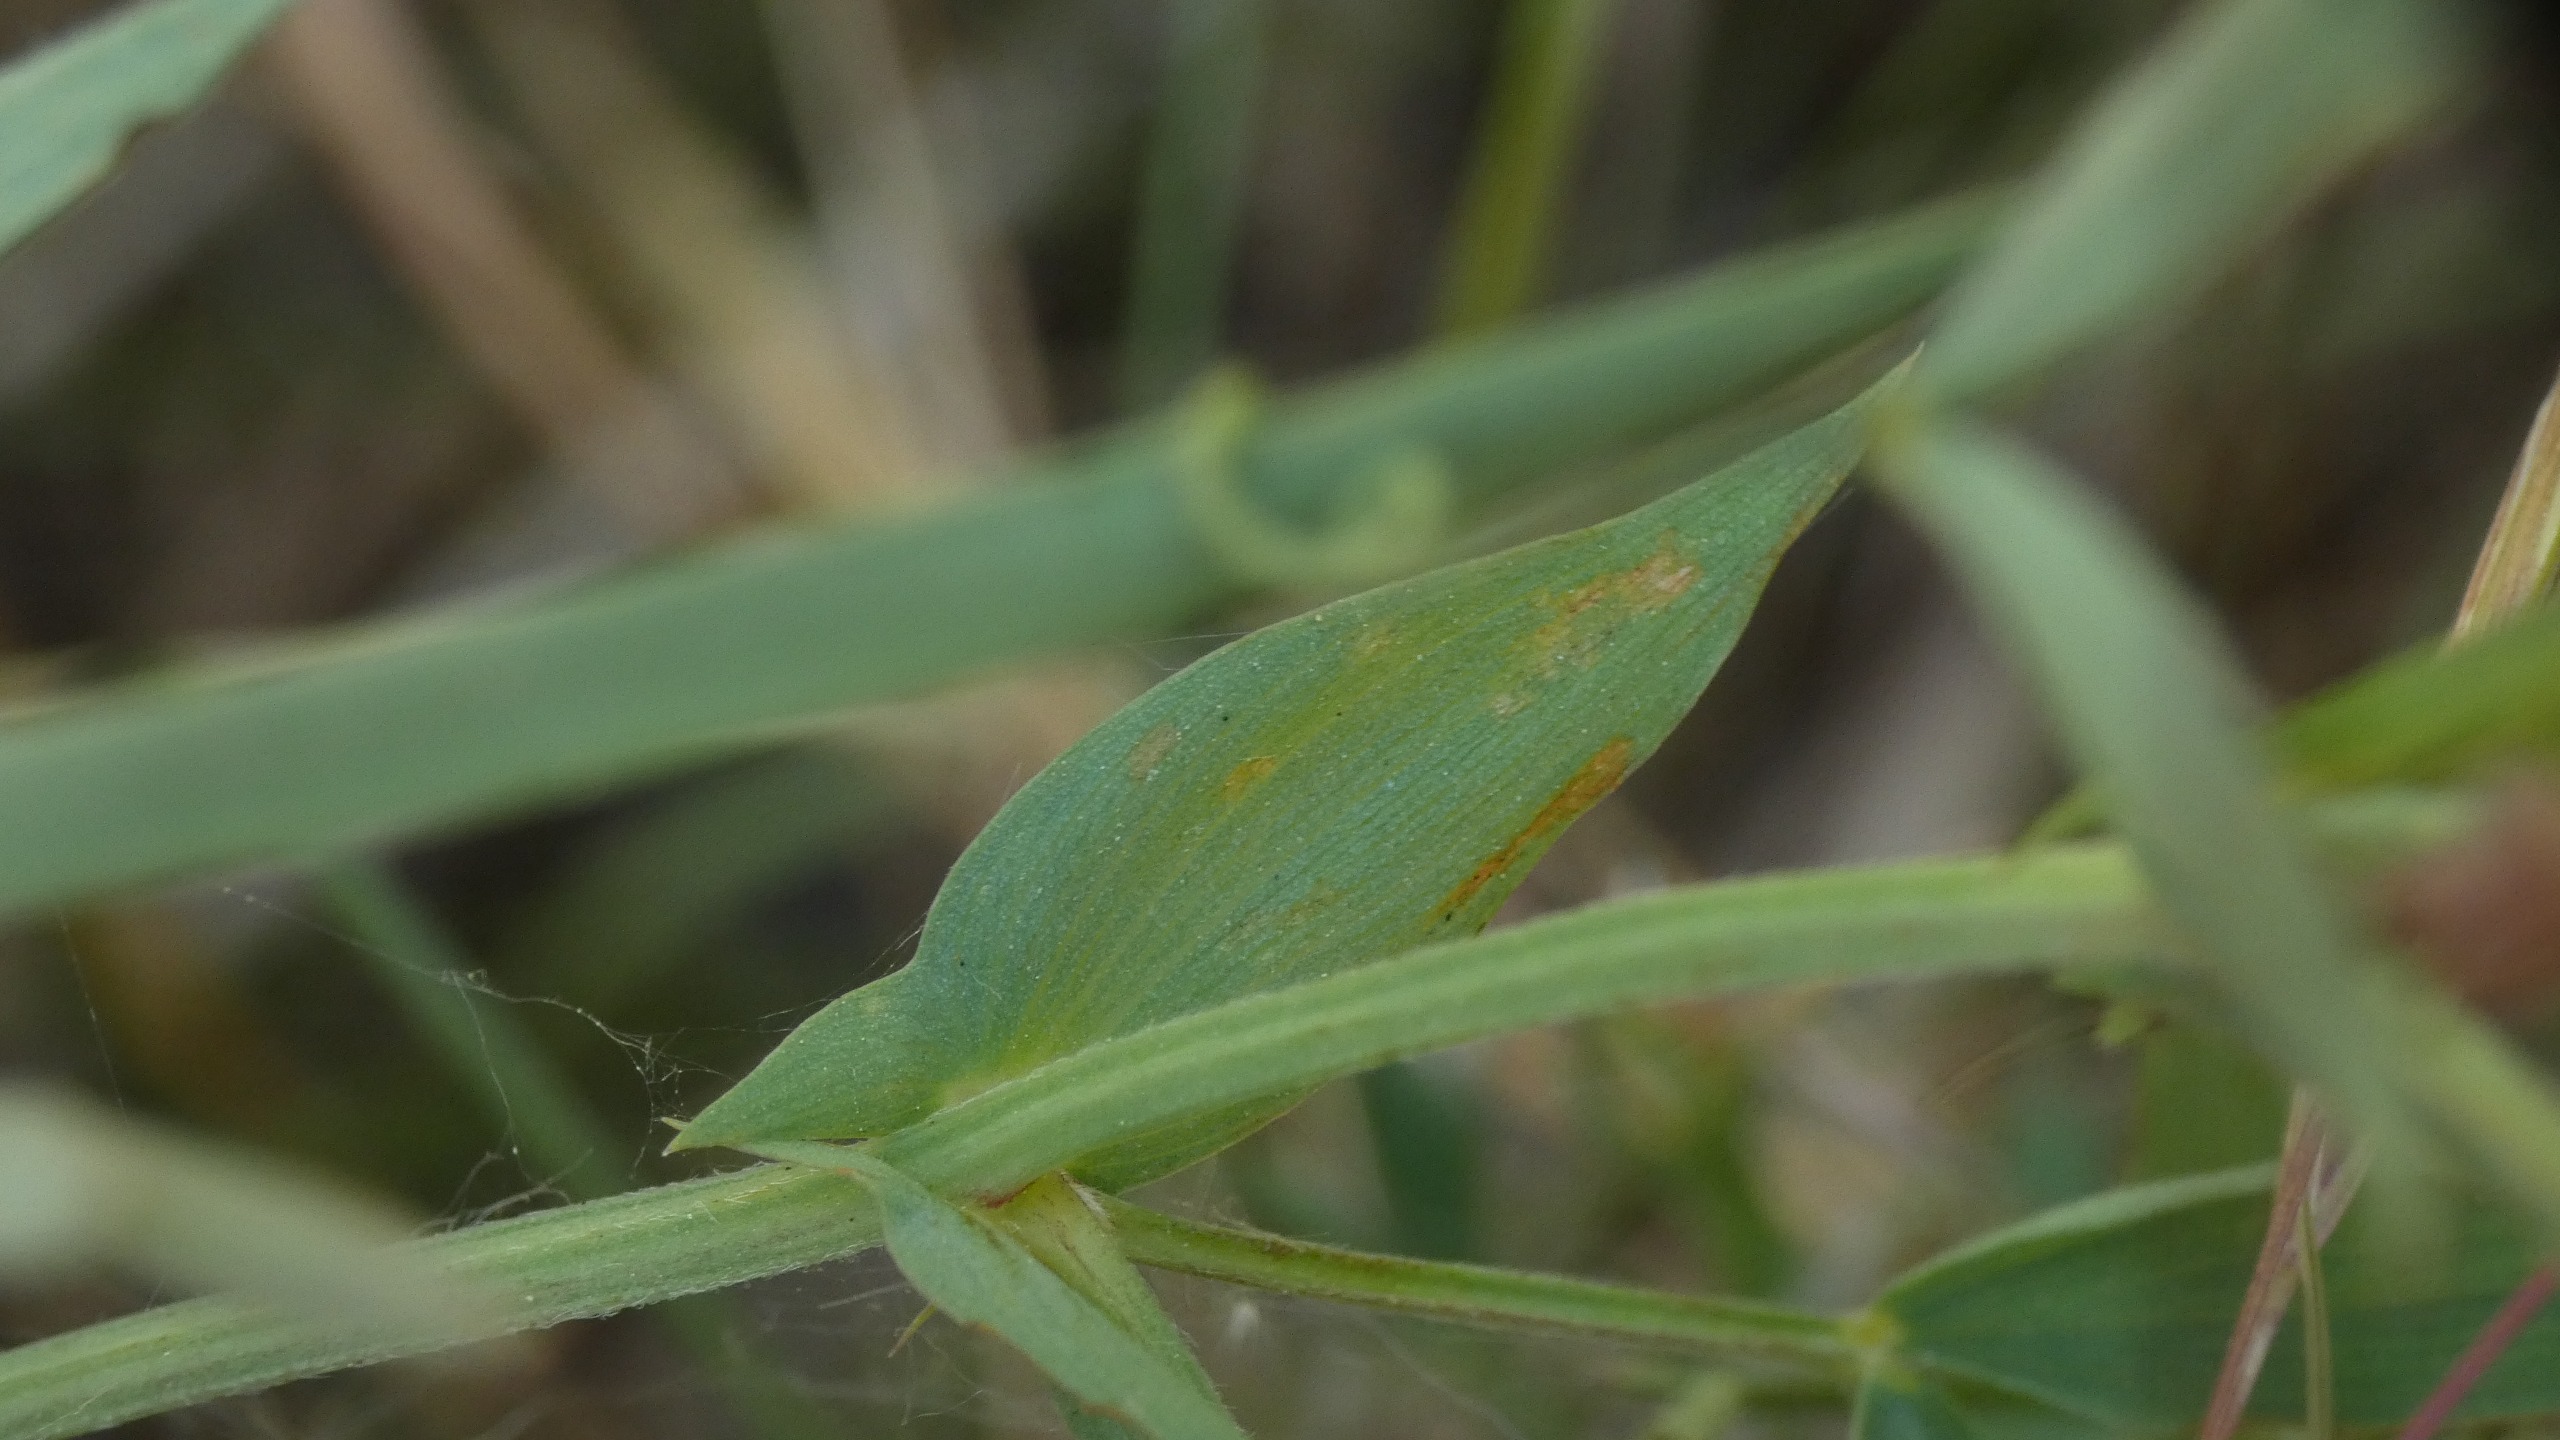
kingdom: Plantae
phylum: Tracheophyta
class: Magnoliopsida
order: Fabales
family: Fabaceae
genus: Lathyrus
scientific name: Lathyrus pratensis
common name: Gul fladbælg
